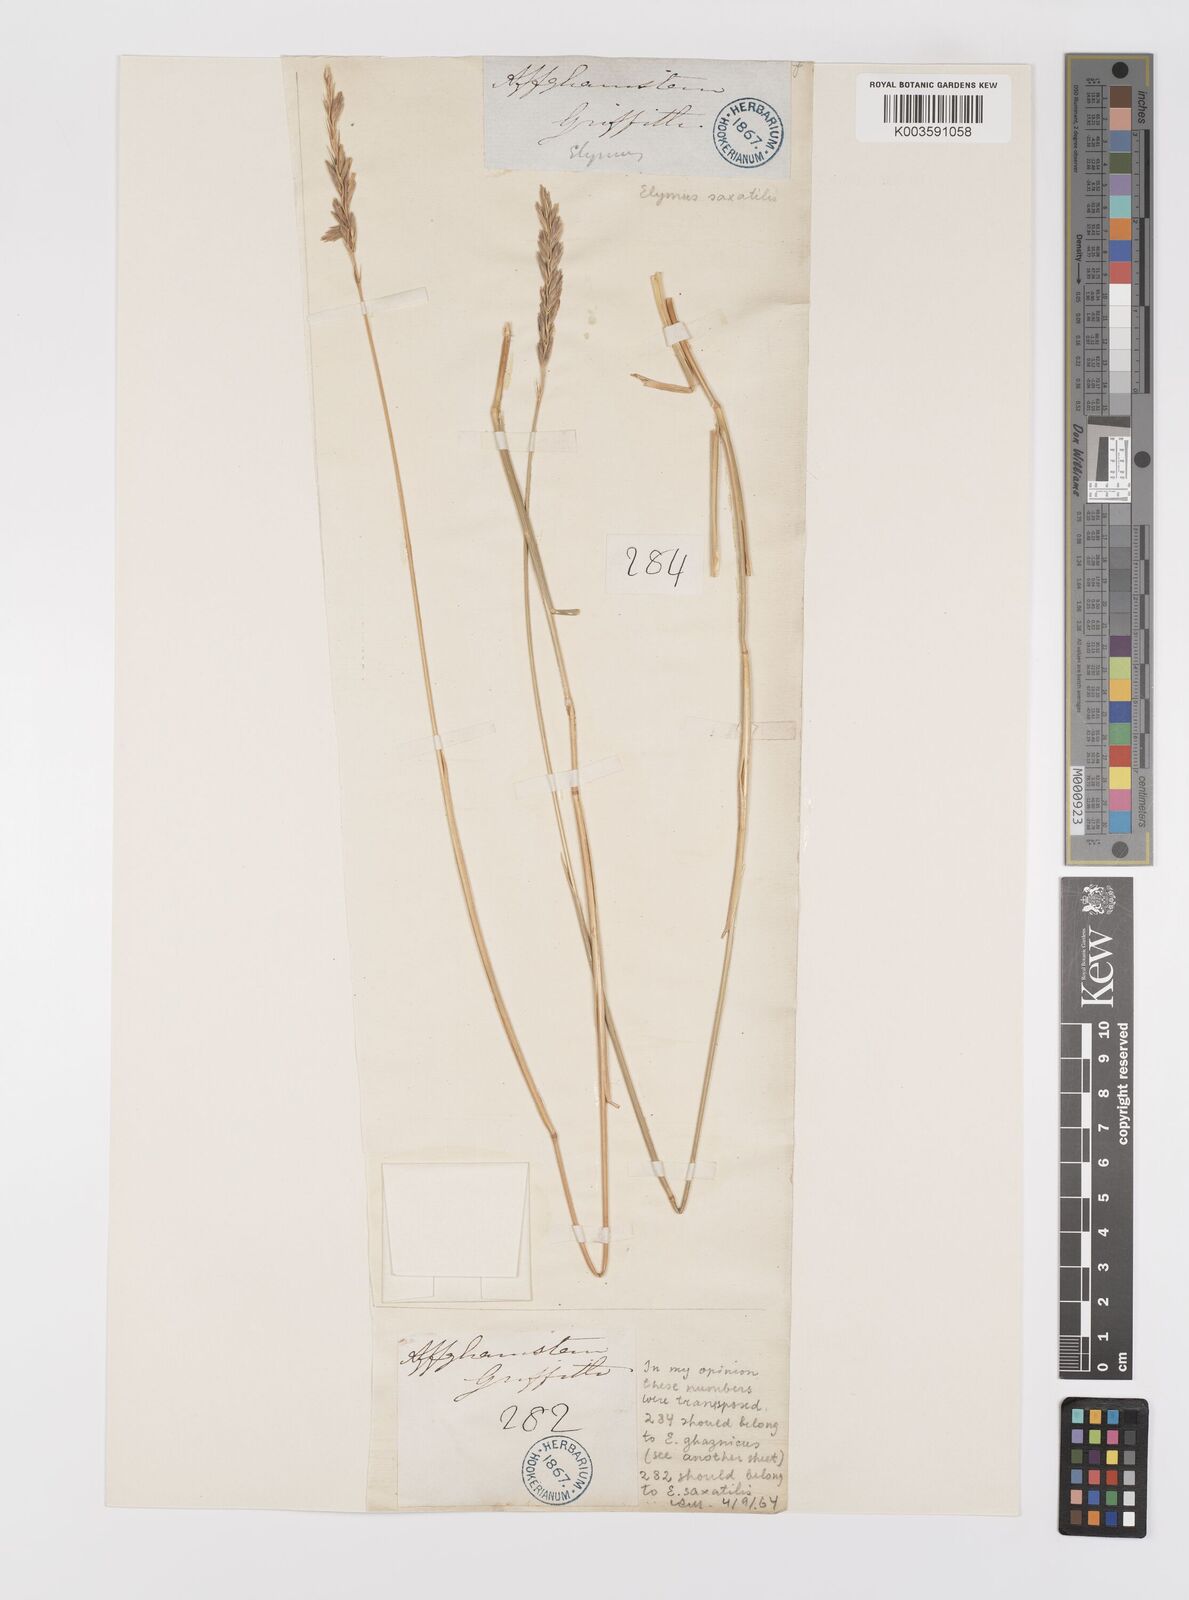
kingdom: Plantae
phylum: Tracheophyta
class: Liliopsida
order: Poales
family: Poaceae
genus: Leymus
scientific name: Leymus
